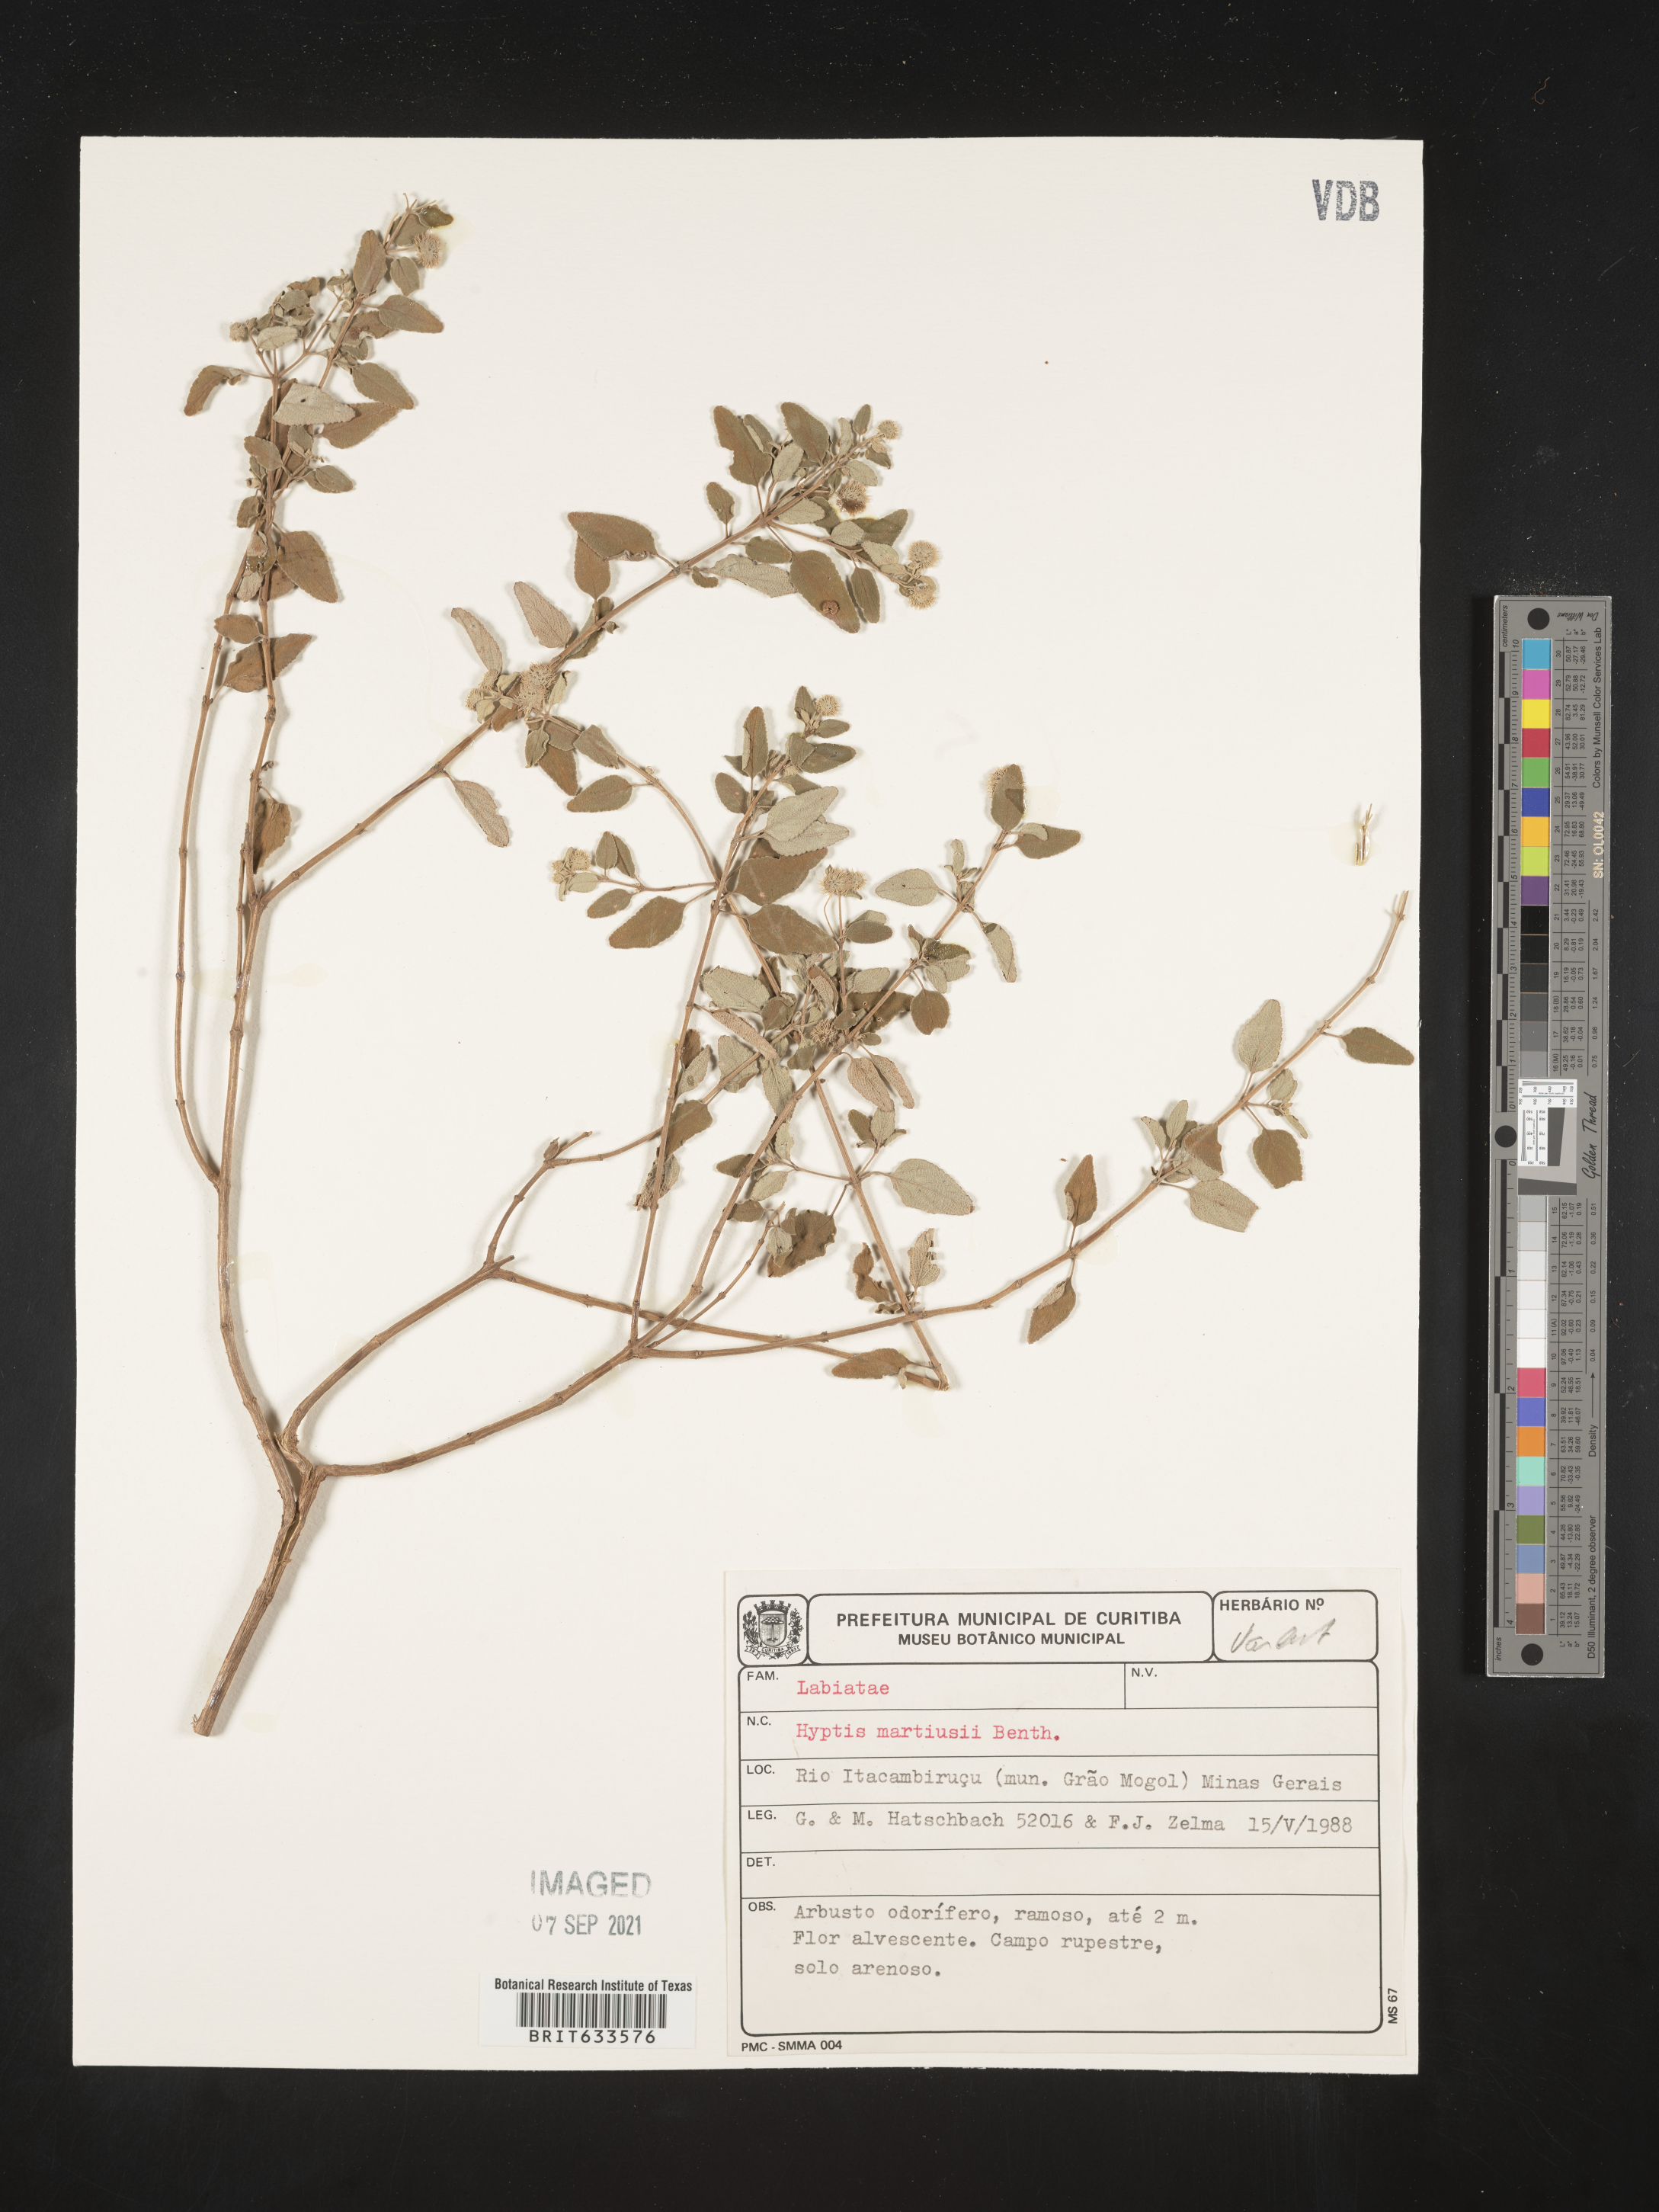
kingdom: Plantae
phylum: Tracheophyta
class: Magnoliopsida
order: Lamiales
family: Lamiaceae
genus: Hyptis
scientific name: Hyptis
